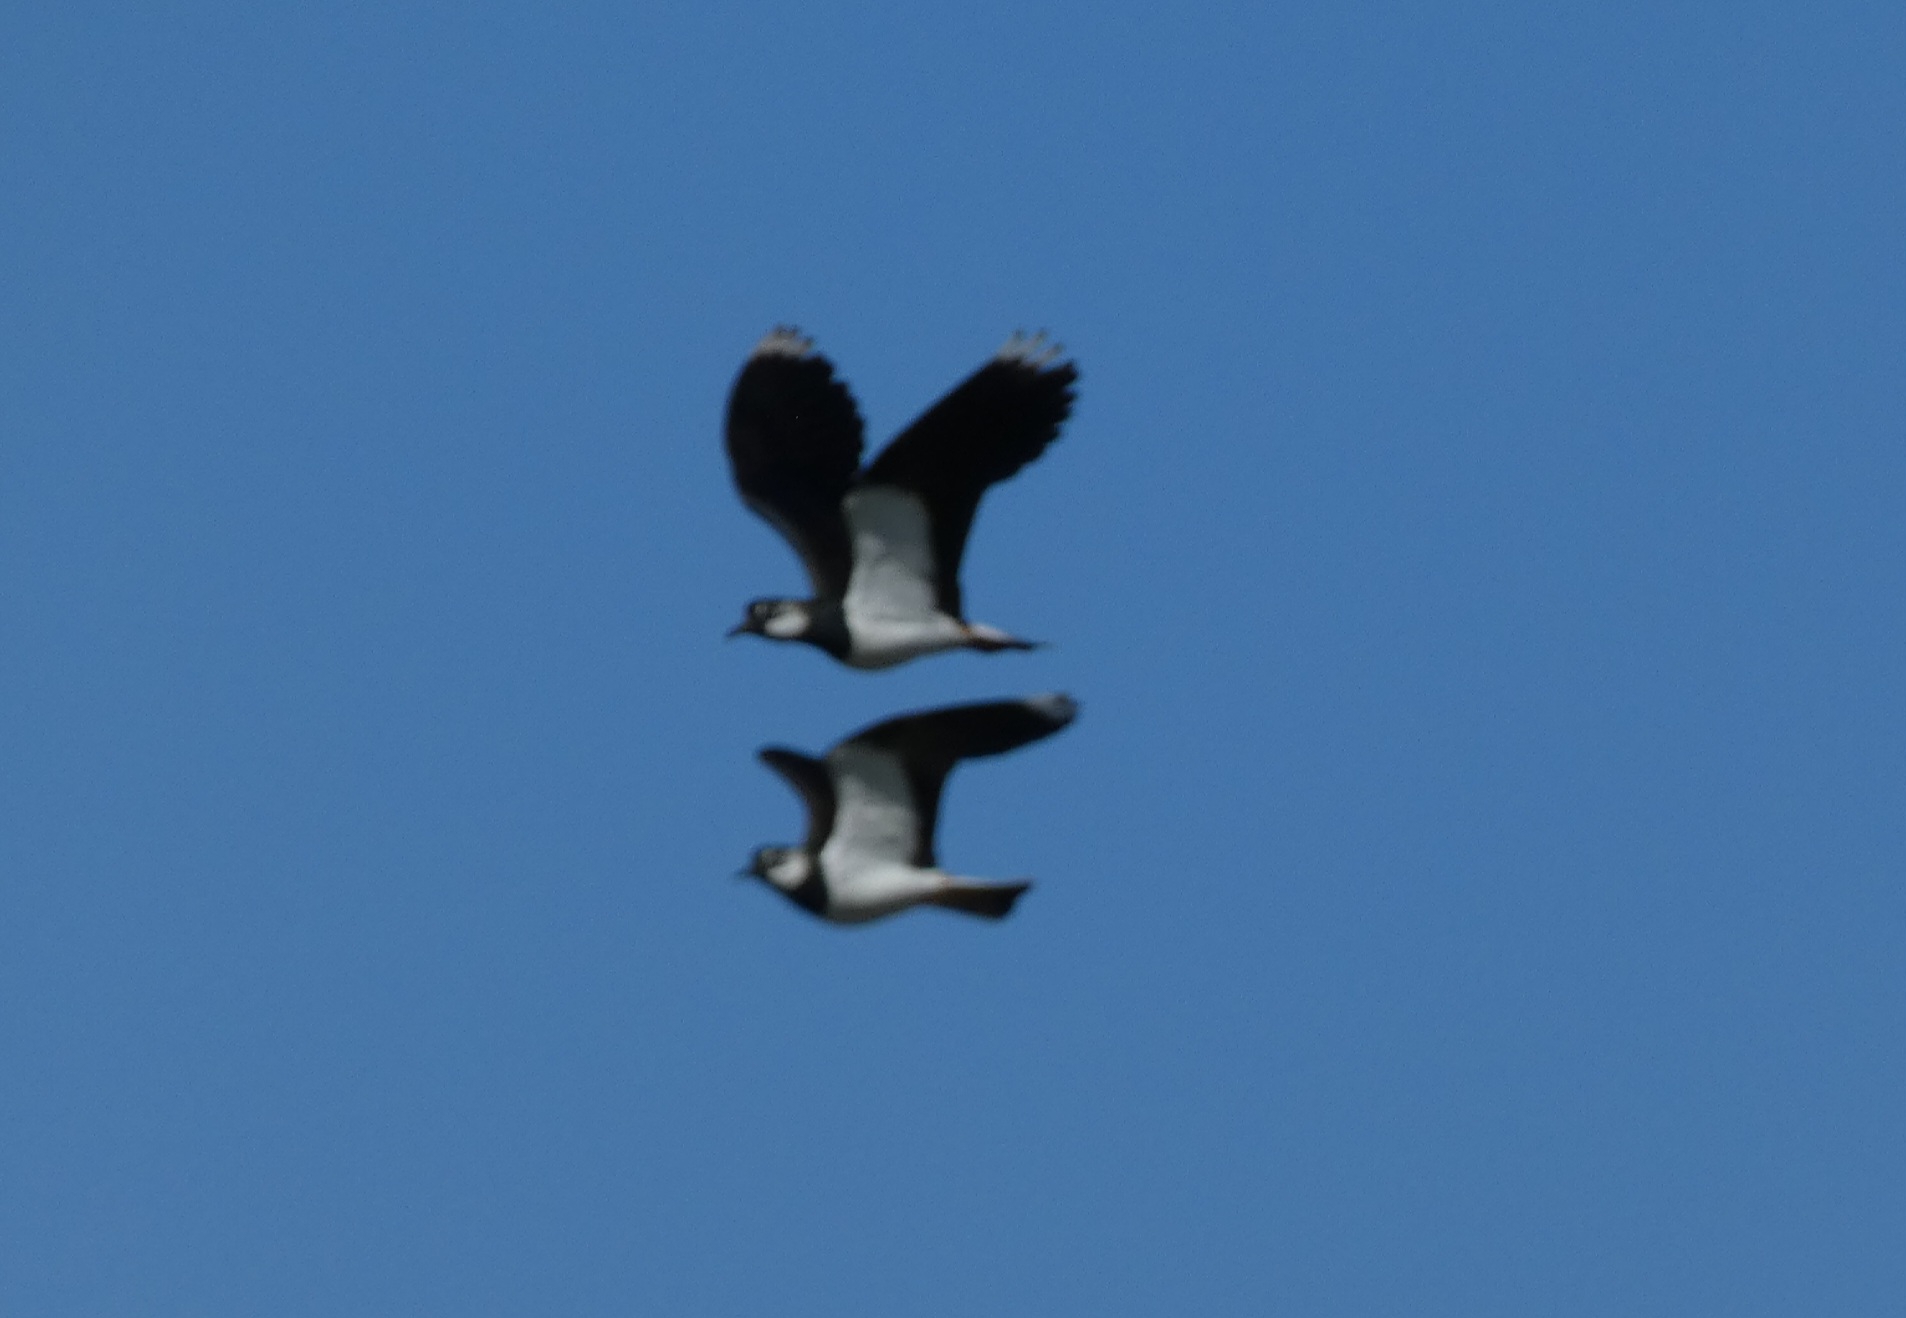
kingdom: Animalia
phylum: Chordata
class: Aves
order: Charadriiformes
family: Charadriidae
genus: Vanellus
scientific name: Vanellus vanellus
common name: Vibe
